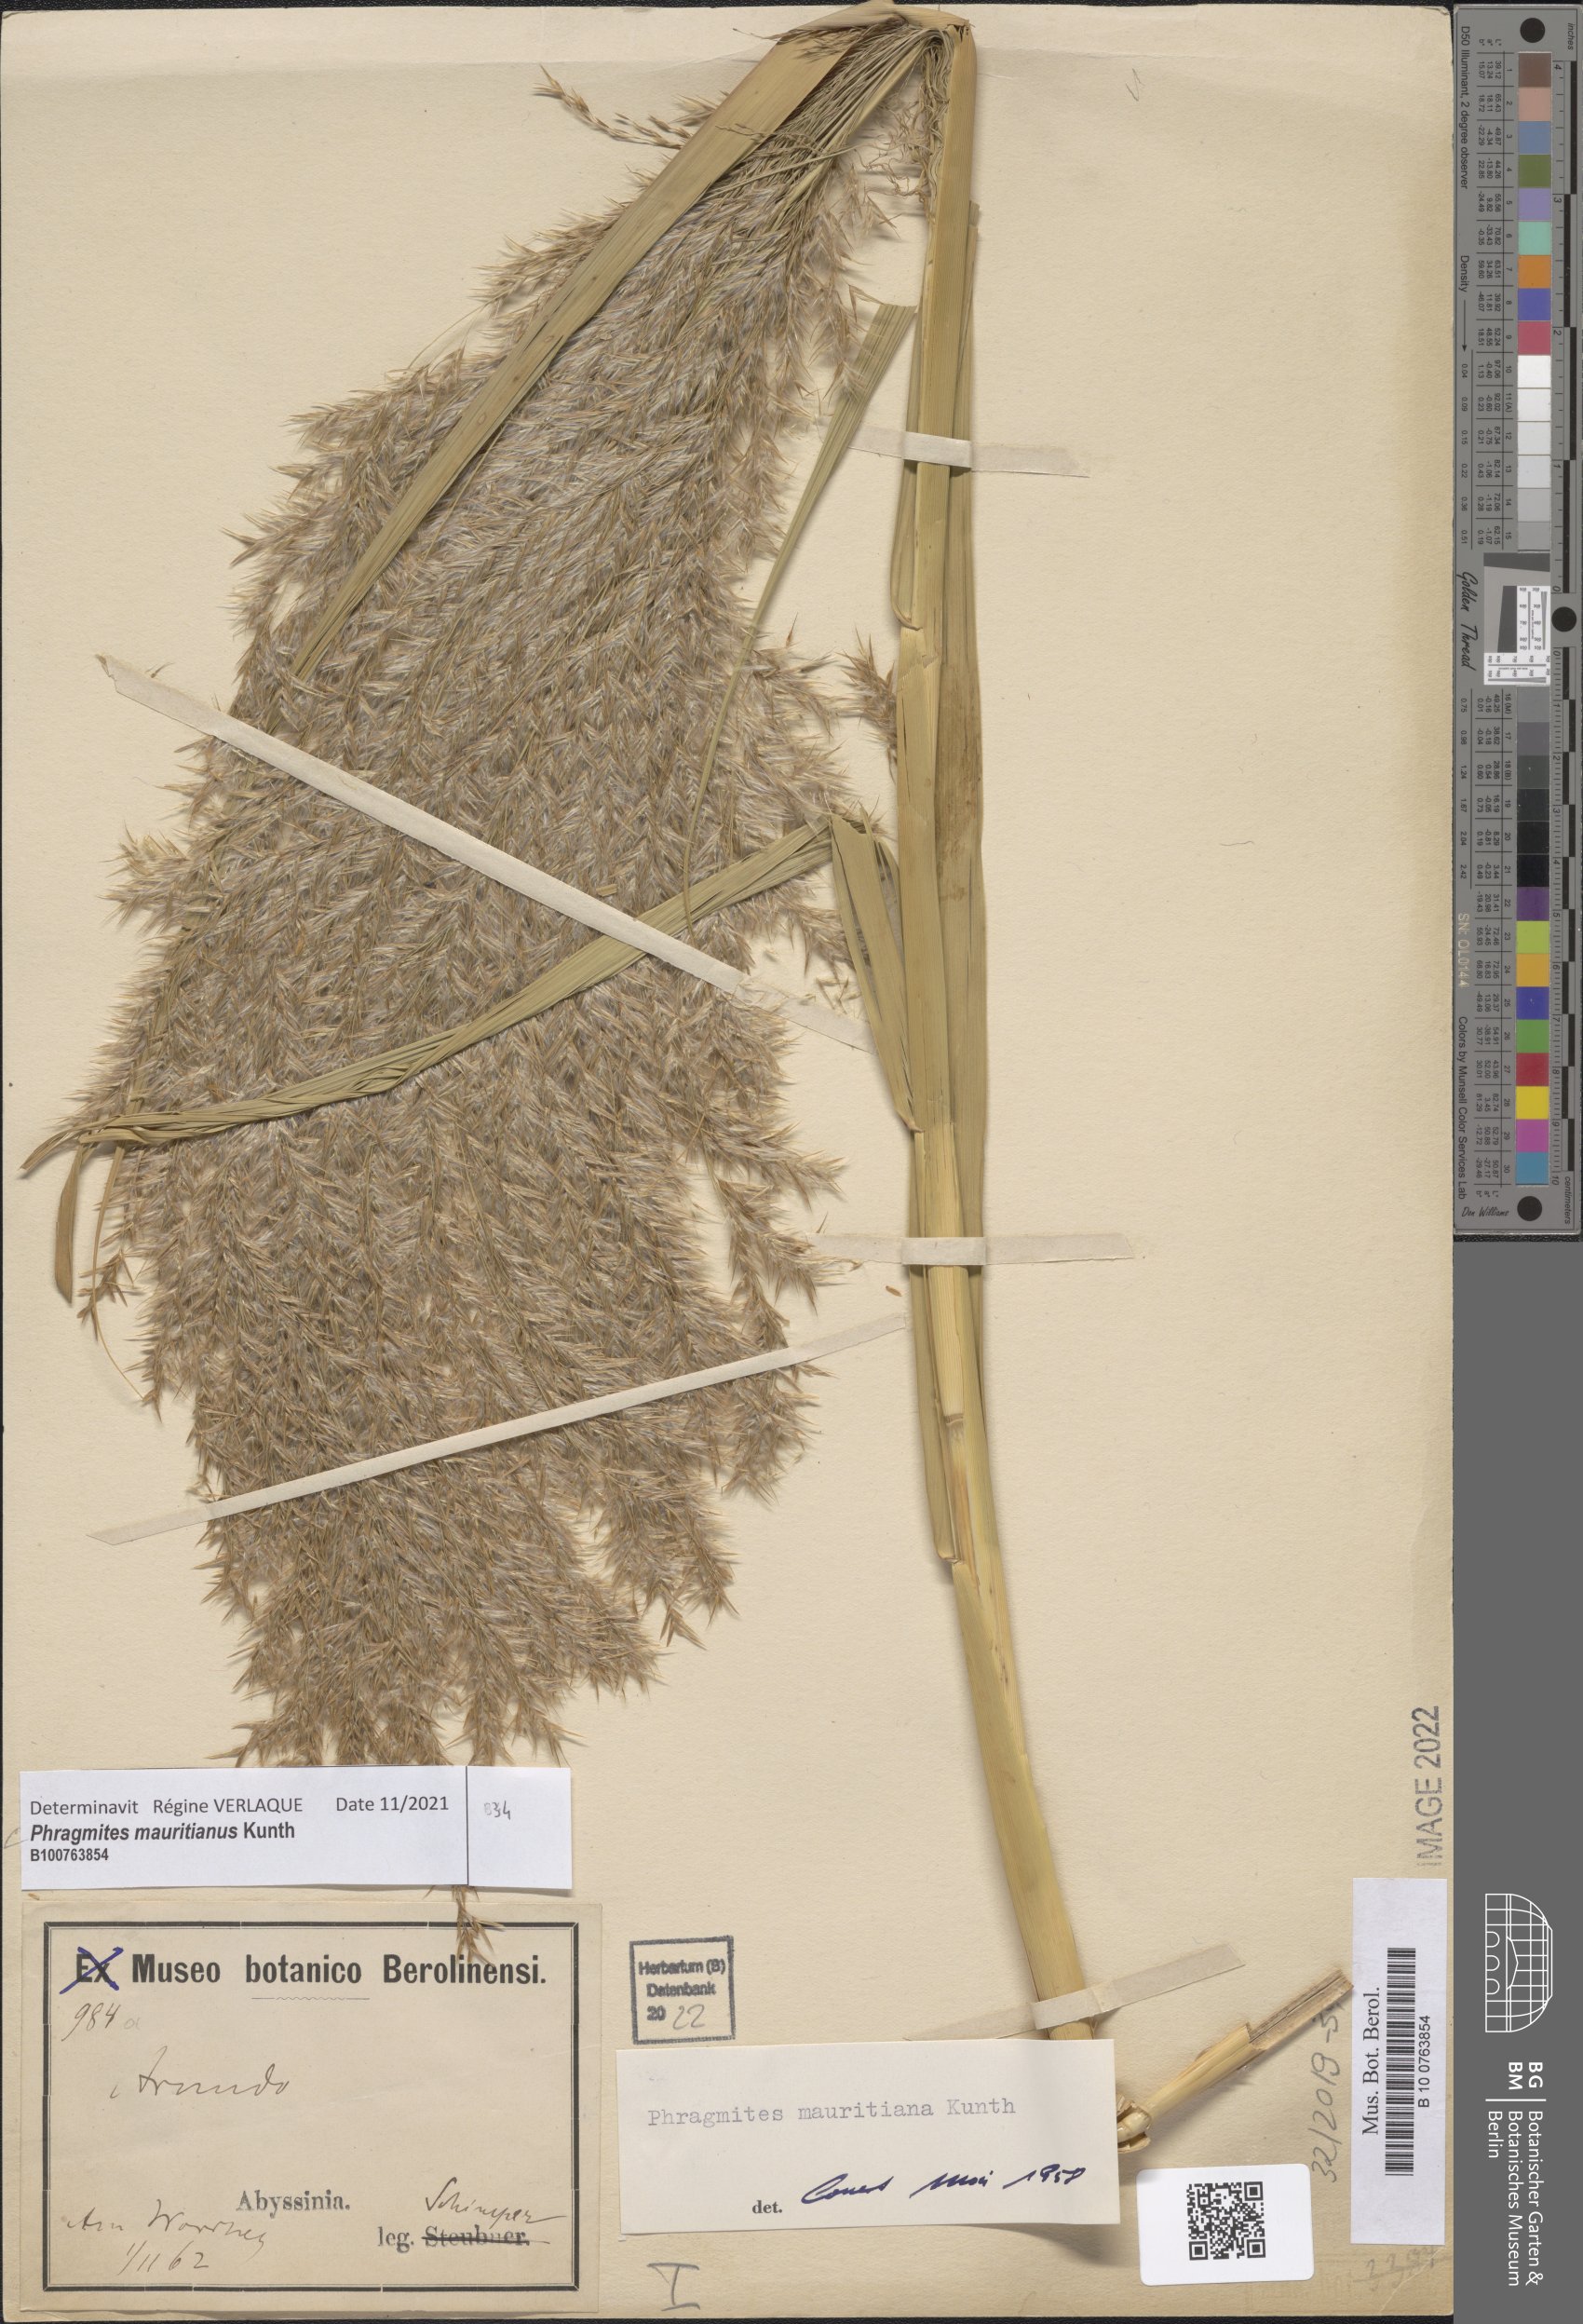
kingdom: Plantae
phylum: Tracheophyta
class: Liliopsida
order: Poales
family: Poaceae
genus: Phragmites
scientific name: Phragmites mauritianus
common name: Reed grass
